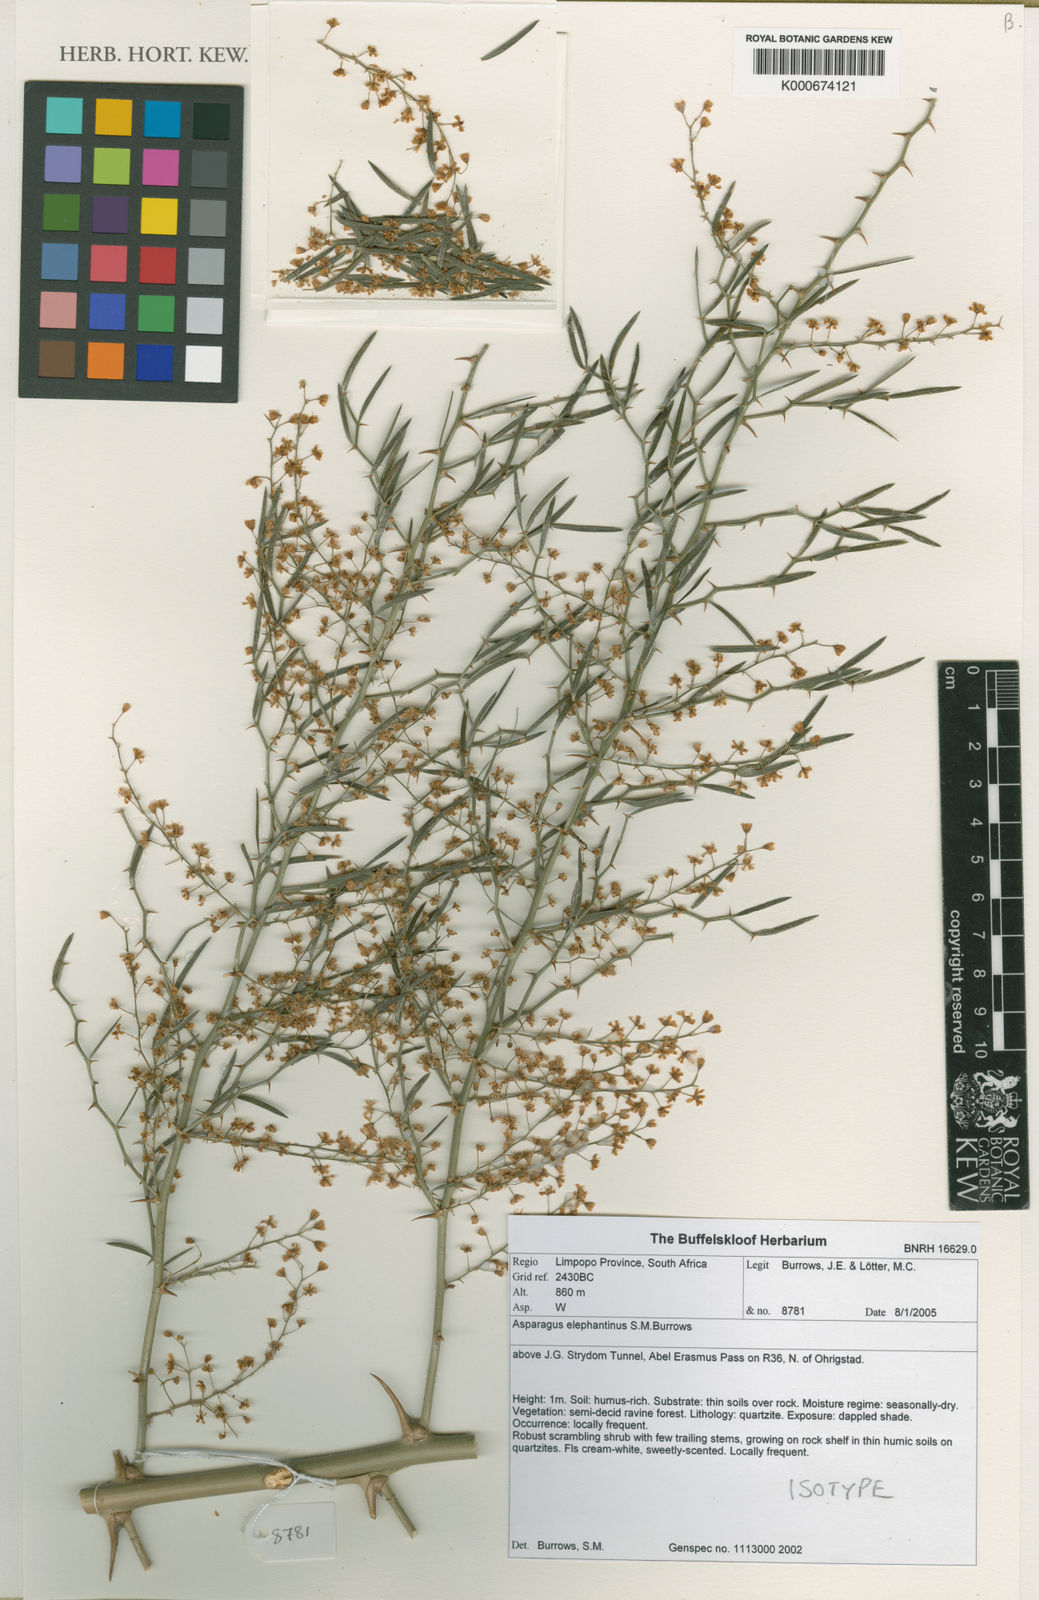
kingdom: Plantae
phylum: Tracheophyta
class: Liliopsida
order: Asparagales
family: Asparagaceae
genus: Asparagus
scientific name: Asparagus elephantinus
